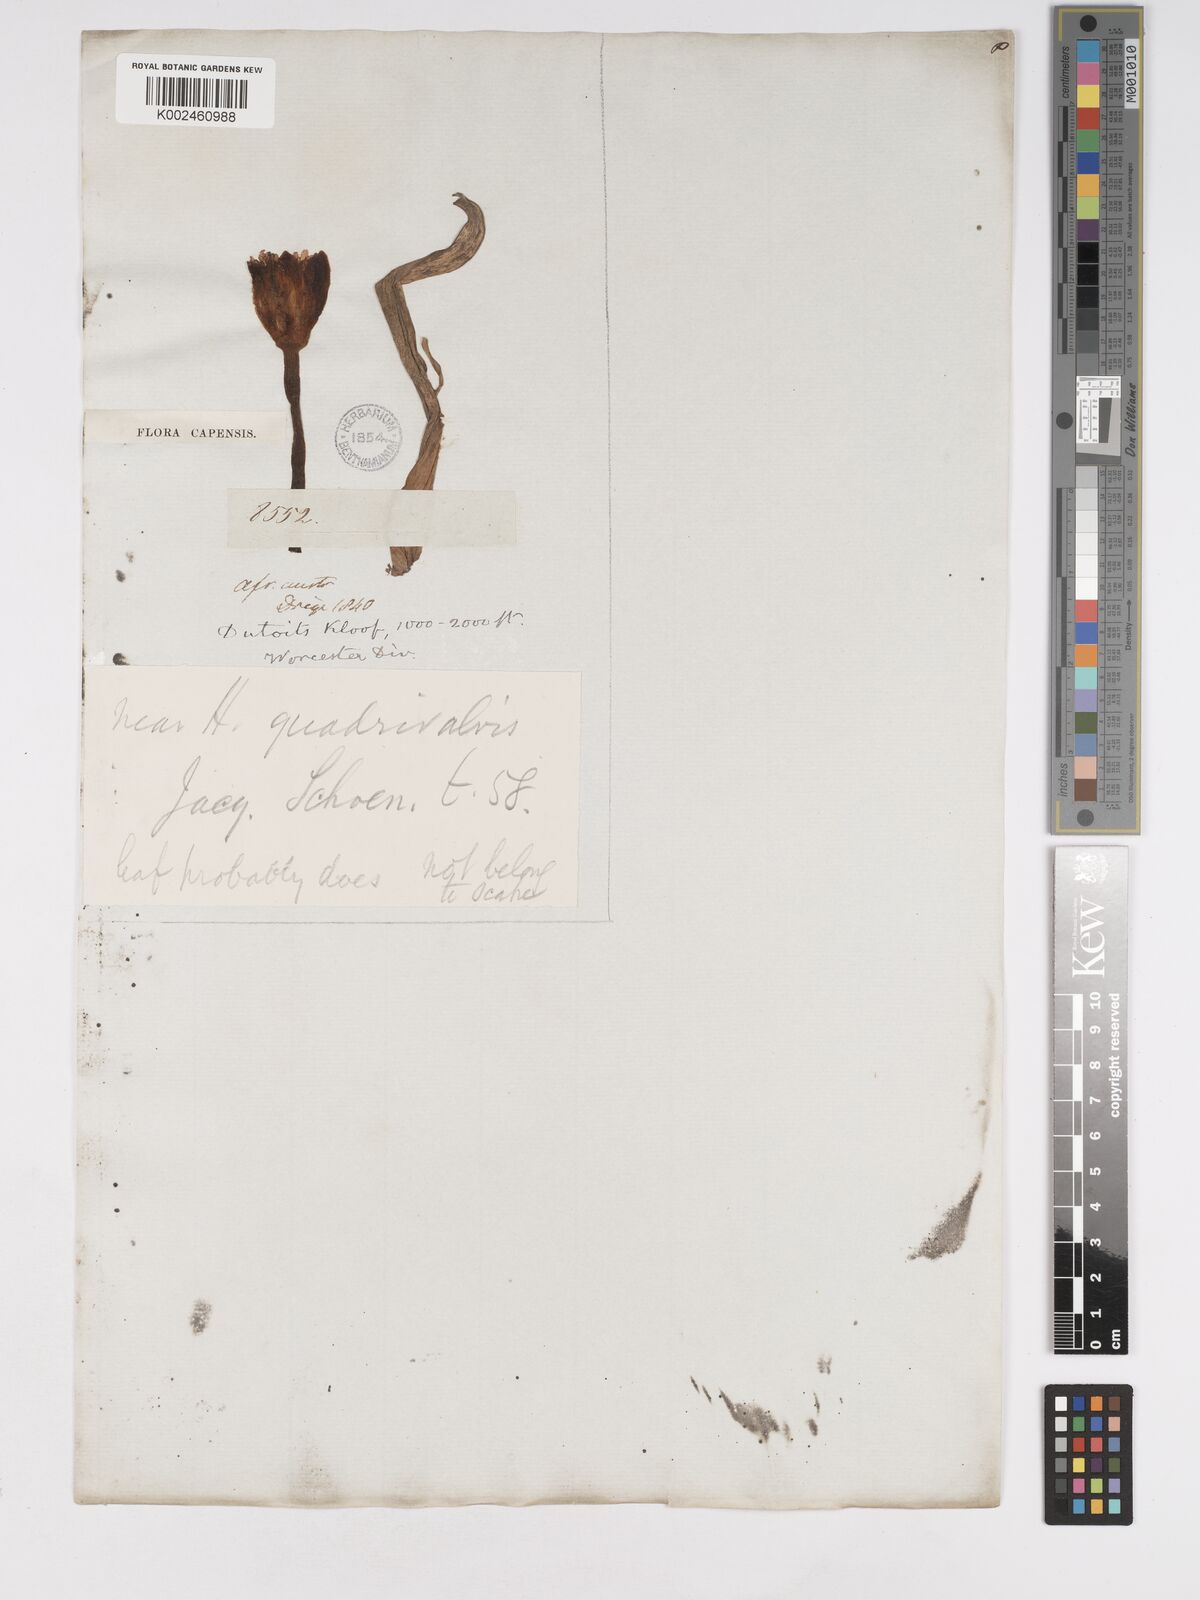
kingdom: Plantae
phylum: Tracheophyta
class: Liliopsida
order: Asparagales
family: Amaryllidaceae
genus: Haemanthus
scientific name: Haemanthus pubescens
